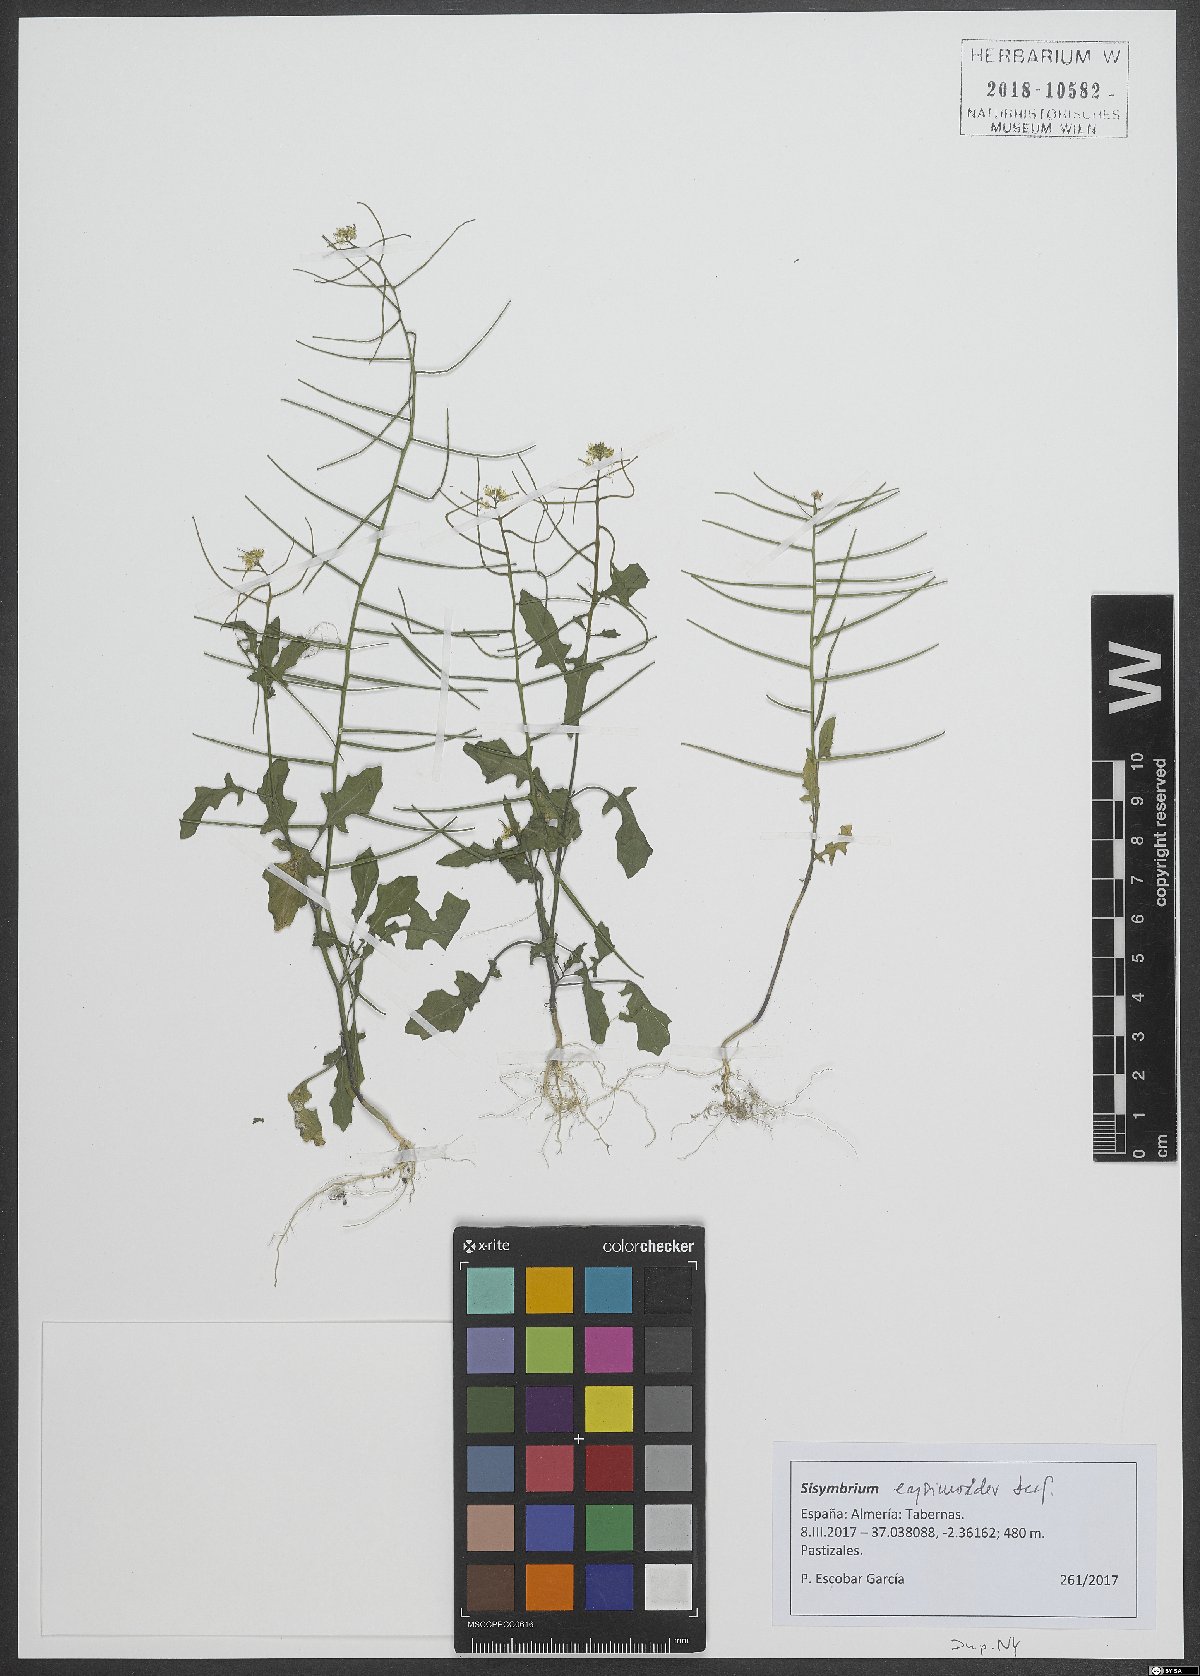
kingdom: Plantae
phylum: Tracheophyta
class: Magnoliopsida
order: Brassicales
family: Brassicaceae
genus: Sisymbrium
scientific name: Sisymbrium erysimoides
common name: French rocket
